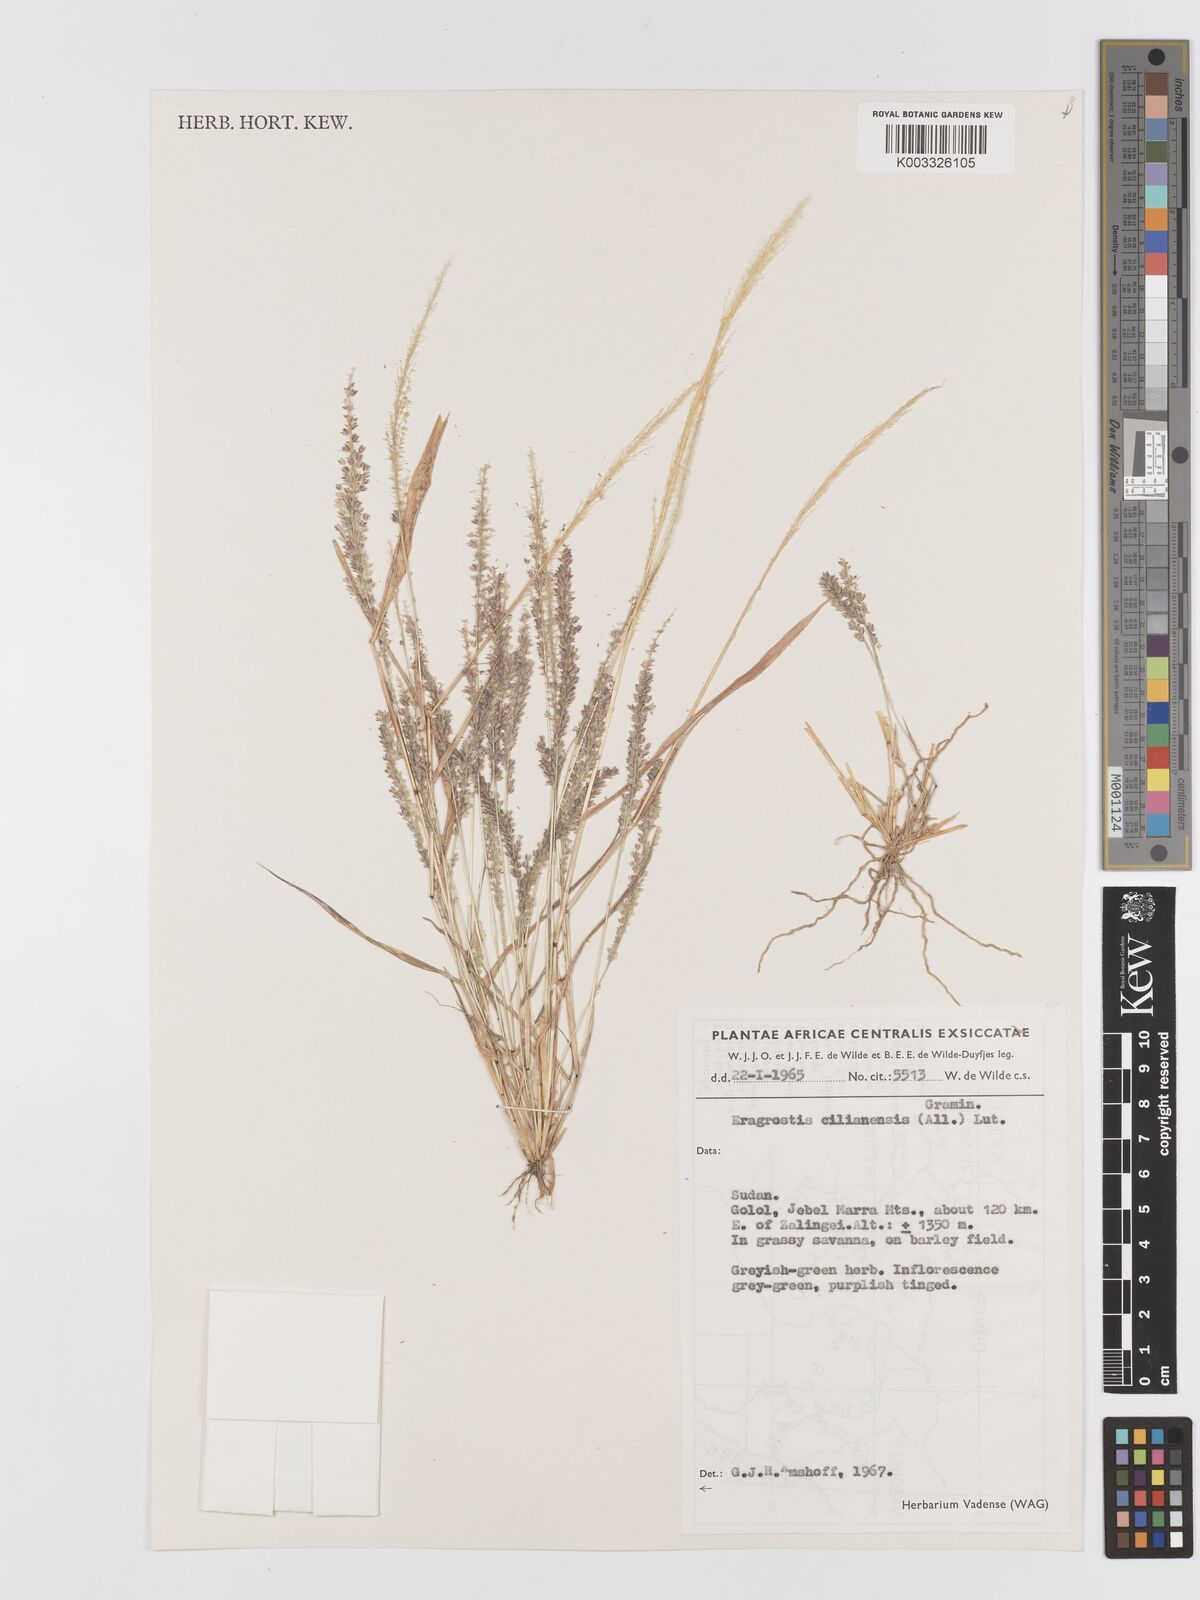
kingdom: Plantae
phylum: Tracheophyta
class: Liliopsida
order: Poales
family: Poaceae
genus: Eragrostis
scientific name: Eragrostis ciliaris
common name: Gophertail lovegrass
